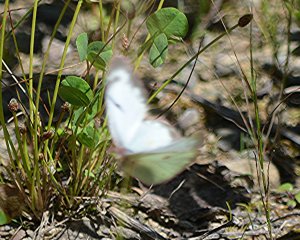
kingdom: Animalia
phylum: Arthropoda
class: Insecta
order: Lepidoptera
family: Pieridae
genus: Colias
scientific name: Colias philodice
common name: Clouded Sulphur
